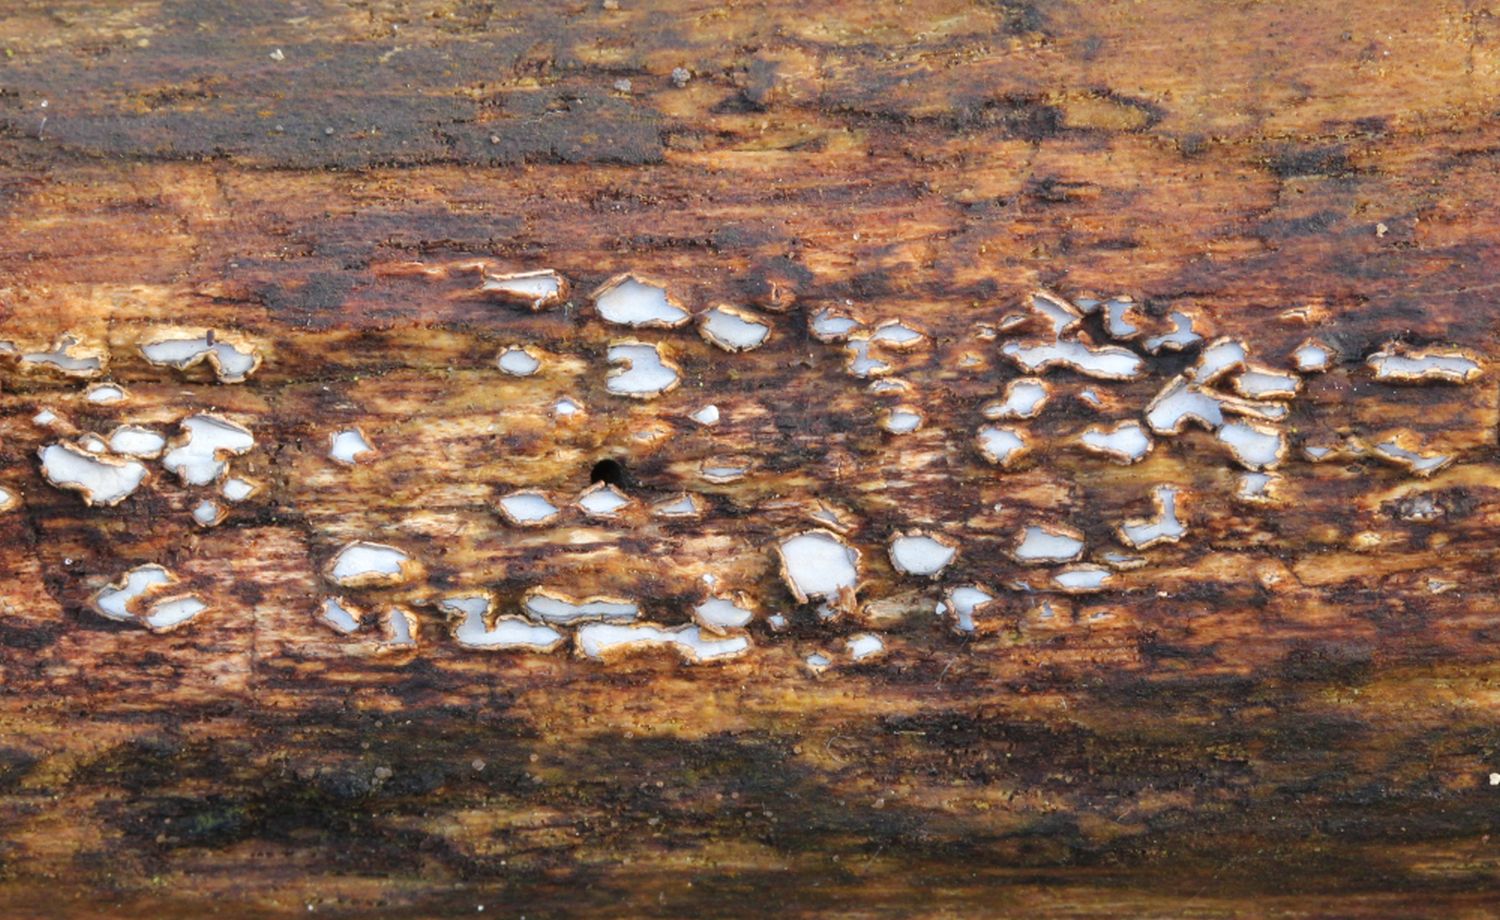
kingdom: Fungi
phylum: Ascomycota
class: Leotiomycetes
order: Chaetomellales
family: Marthamycetaceae
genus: Propolis
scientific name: Propolis farinosa
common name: almindelig vedsprængerskive
